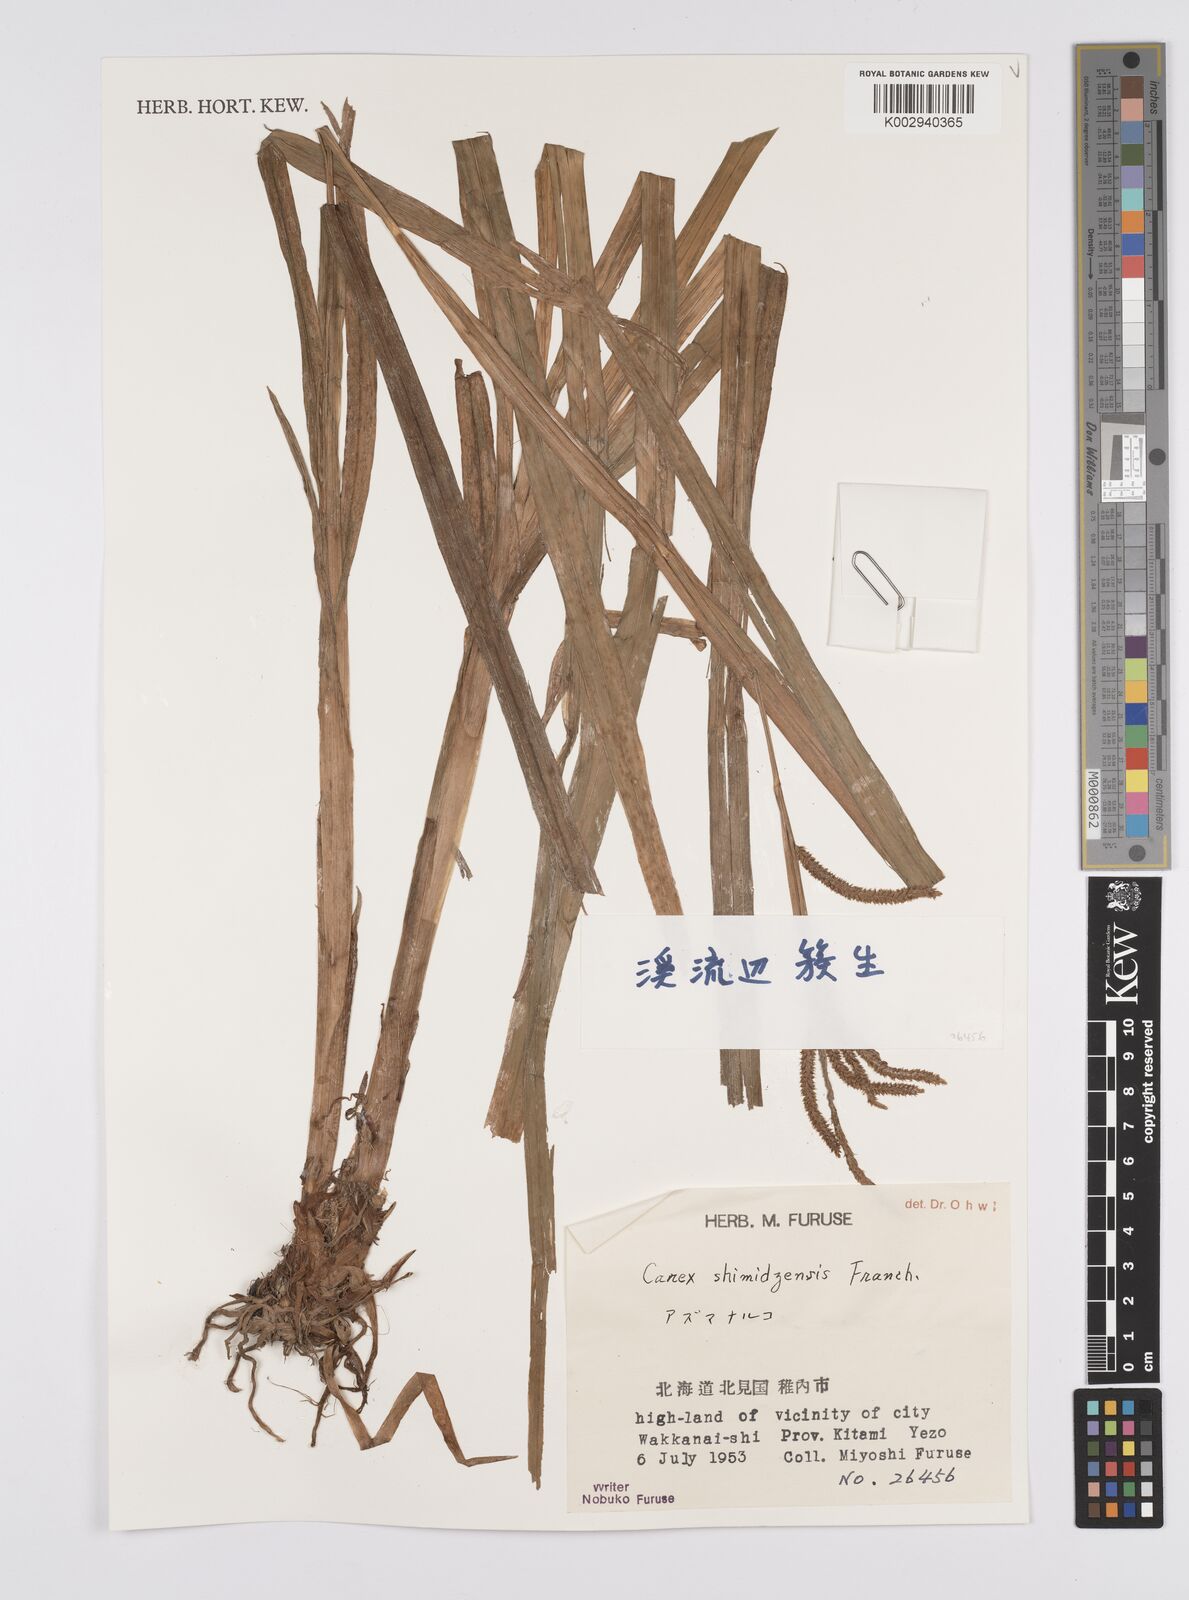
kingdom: Plantae
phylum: Tracheophyta
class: Liliopsida
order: Poales
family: Cyperaceae
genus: Carex
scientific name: Carex shimidzensis
